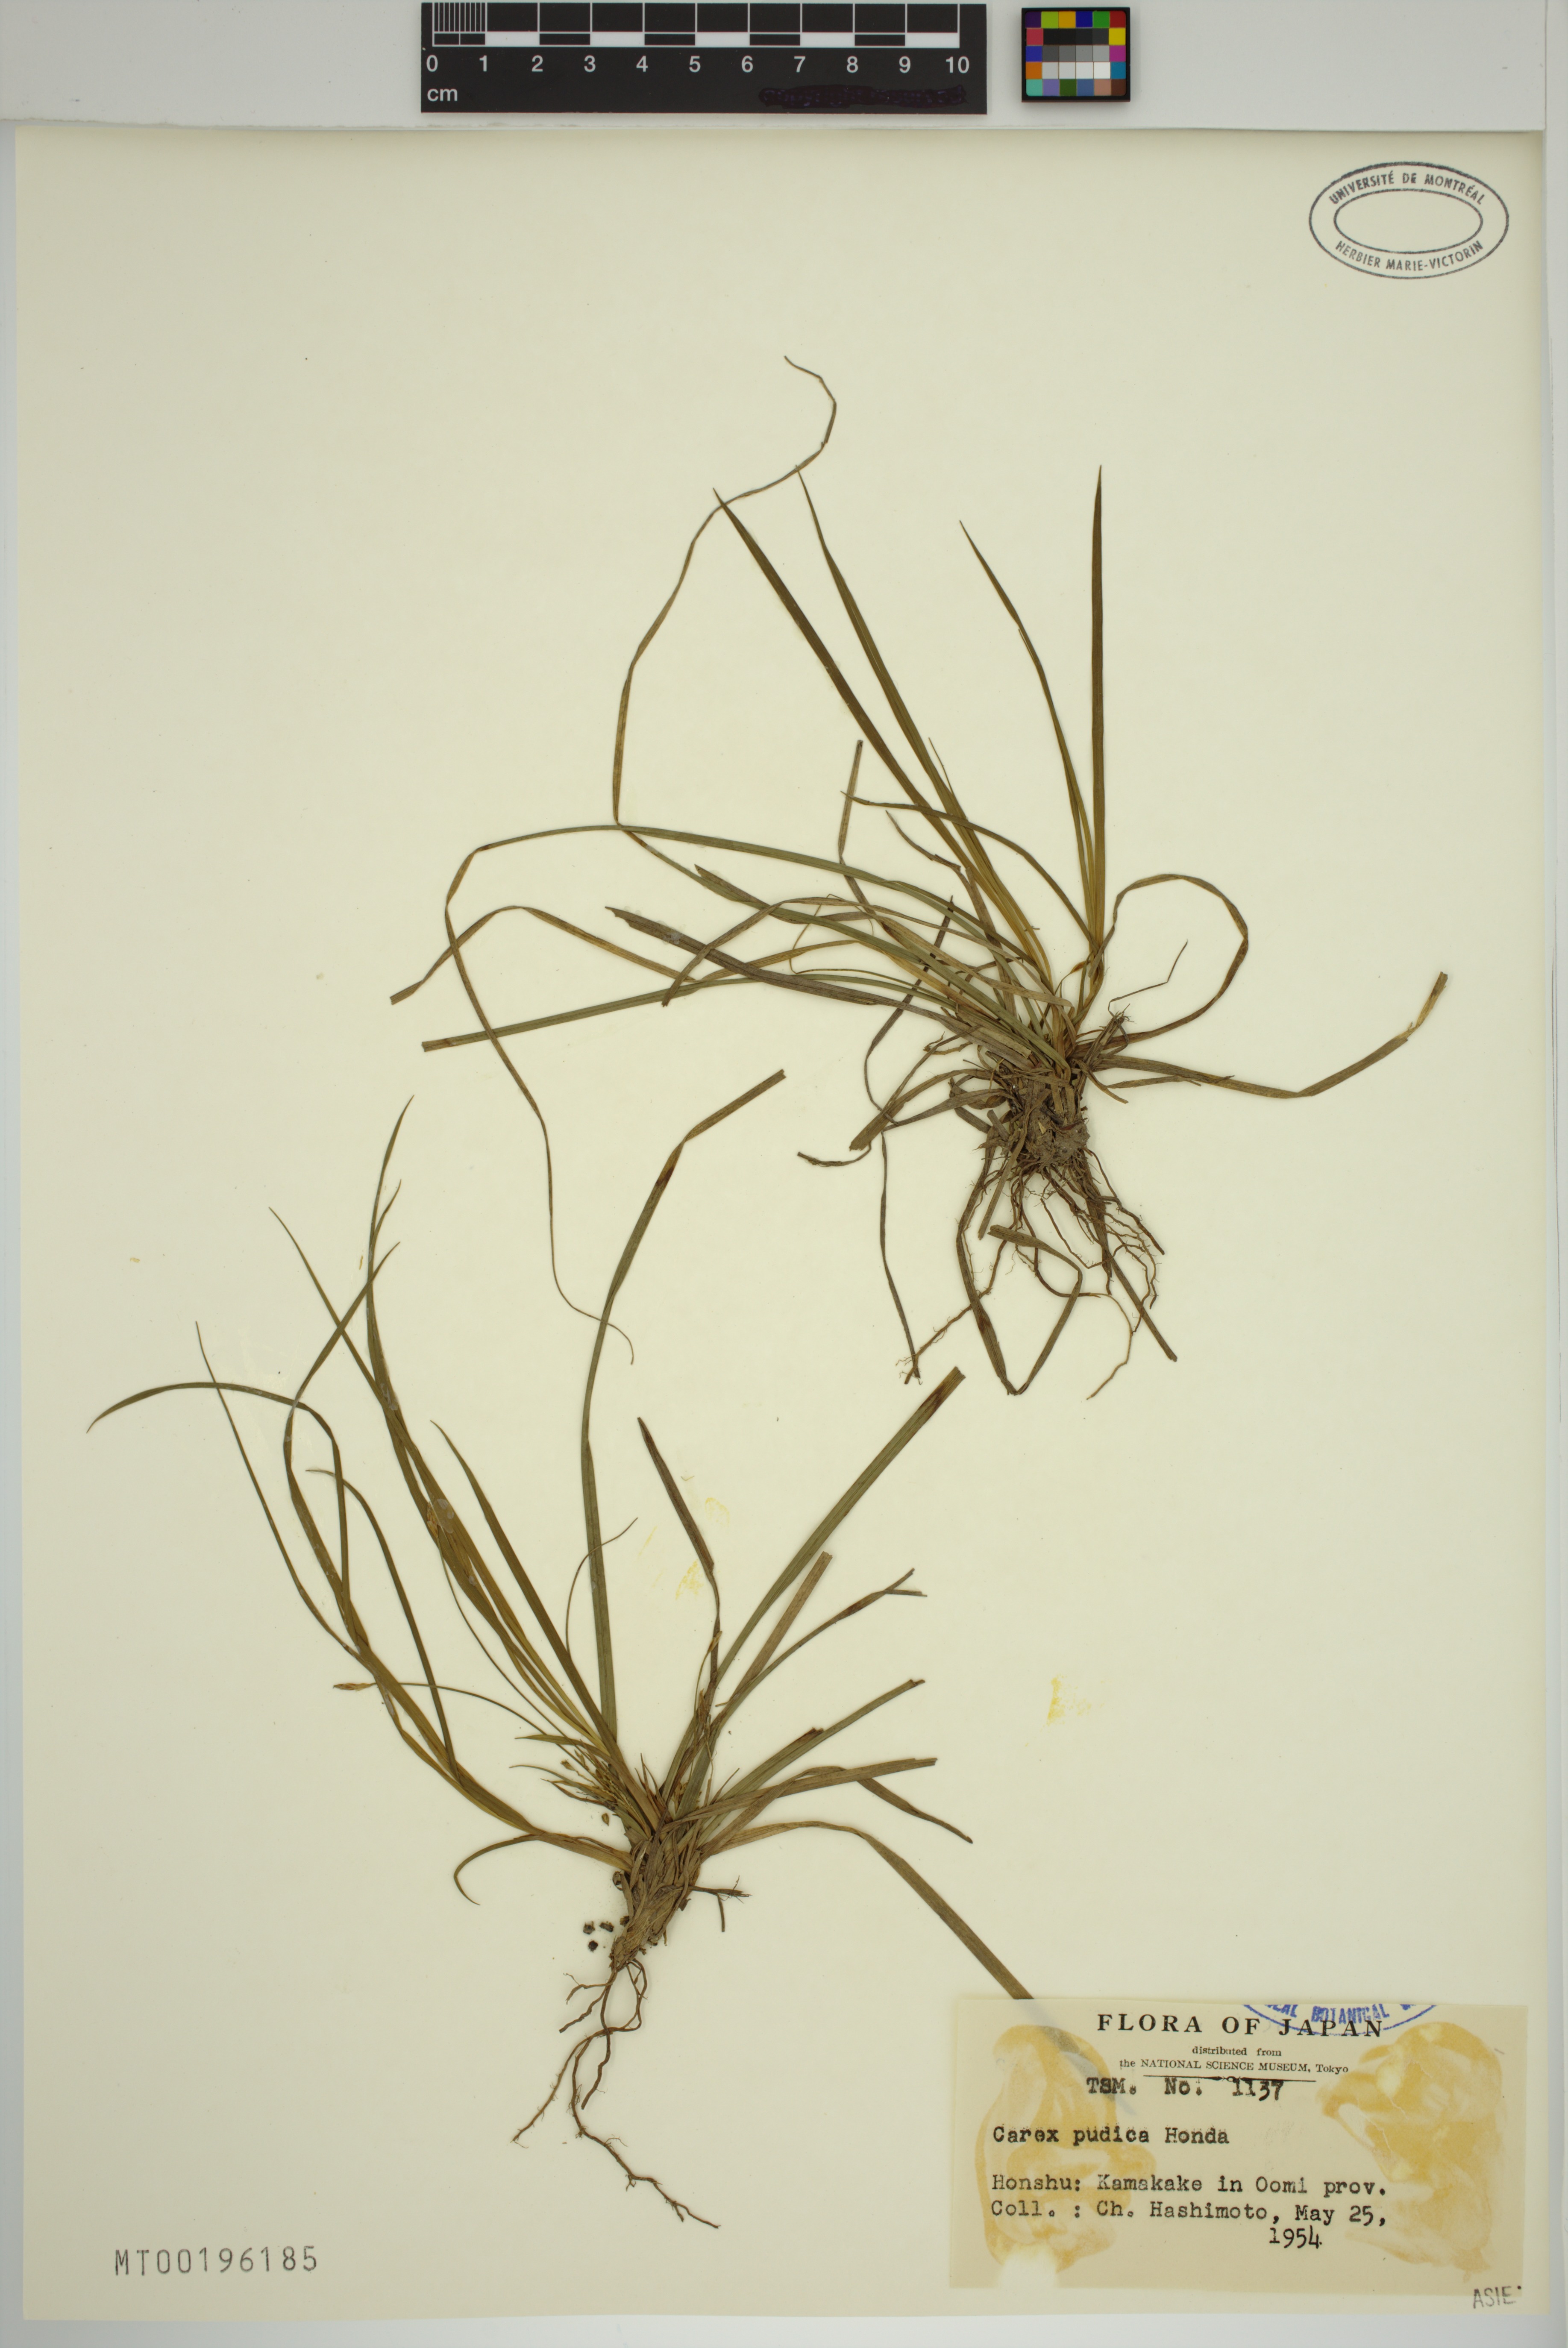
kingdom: Plantae
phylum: Tracheophyta
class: Liliopsida
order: Poales
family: Cyperaceae
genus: Carex
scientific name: Carex pudica
